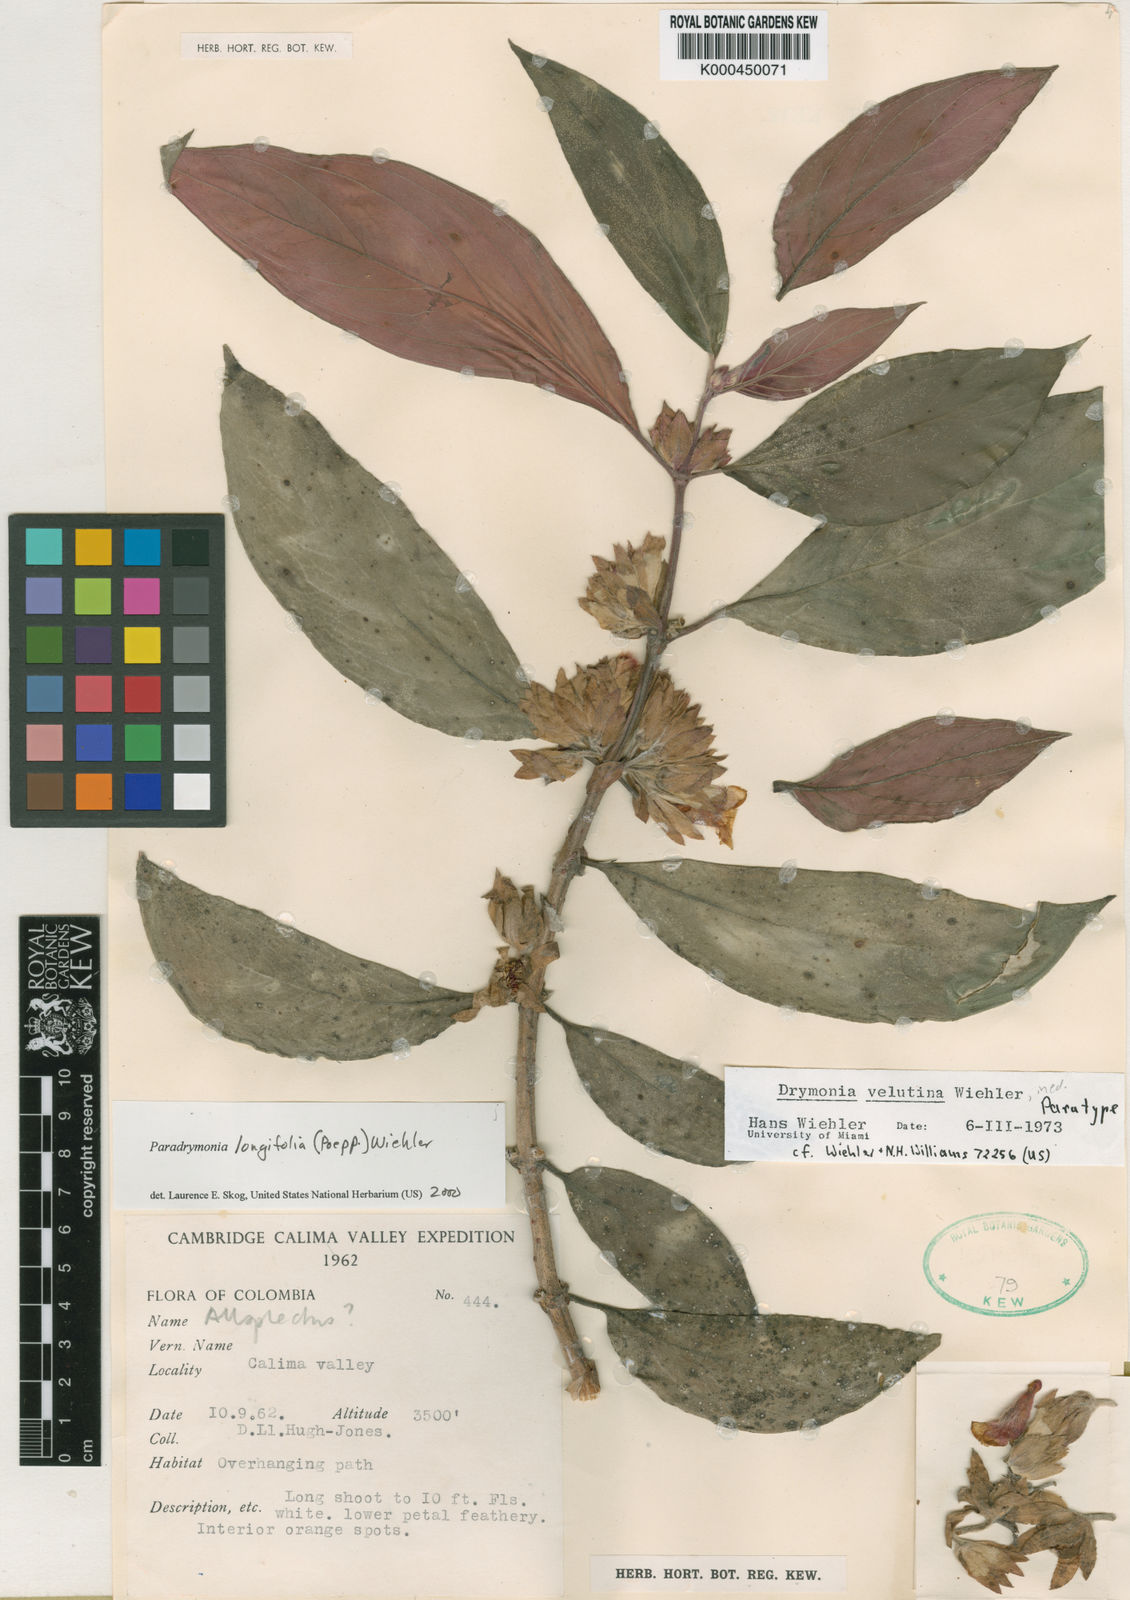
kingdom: Plantae
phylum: Tracheophyta
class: Magnoliopsida
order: Lamiales
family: Gesneriaceae
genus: Paradrymonia
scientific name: Paradrymonia longifolia
